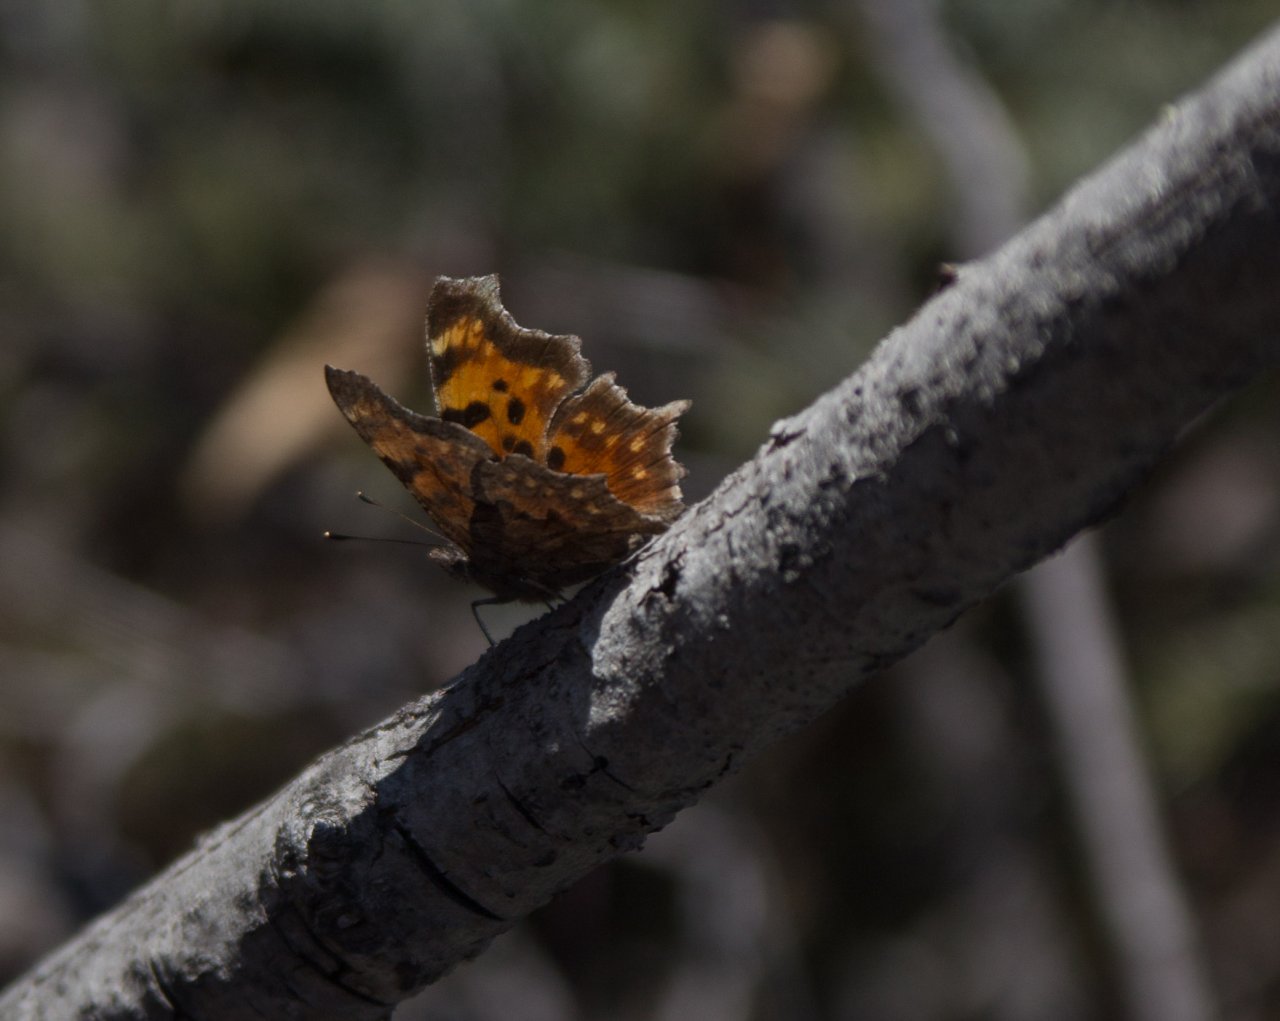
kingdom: Animalia
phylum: Arthropoda
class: Insecta
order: Lepidoptera
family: Nymphalidae
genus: Polygonia
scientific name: Polygonia faunus
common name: Green Comma
